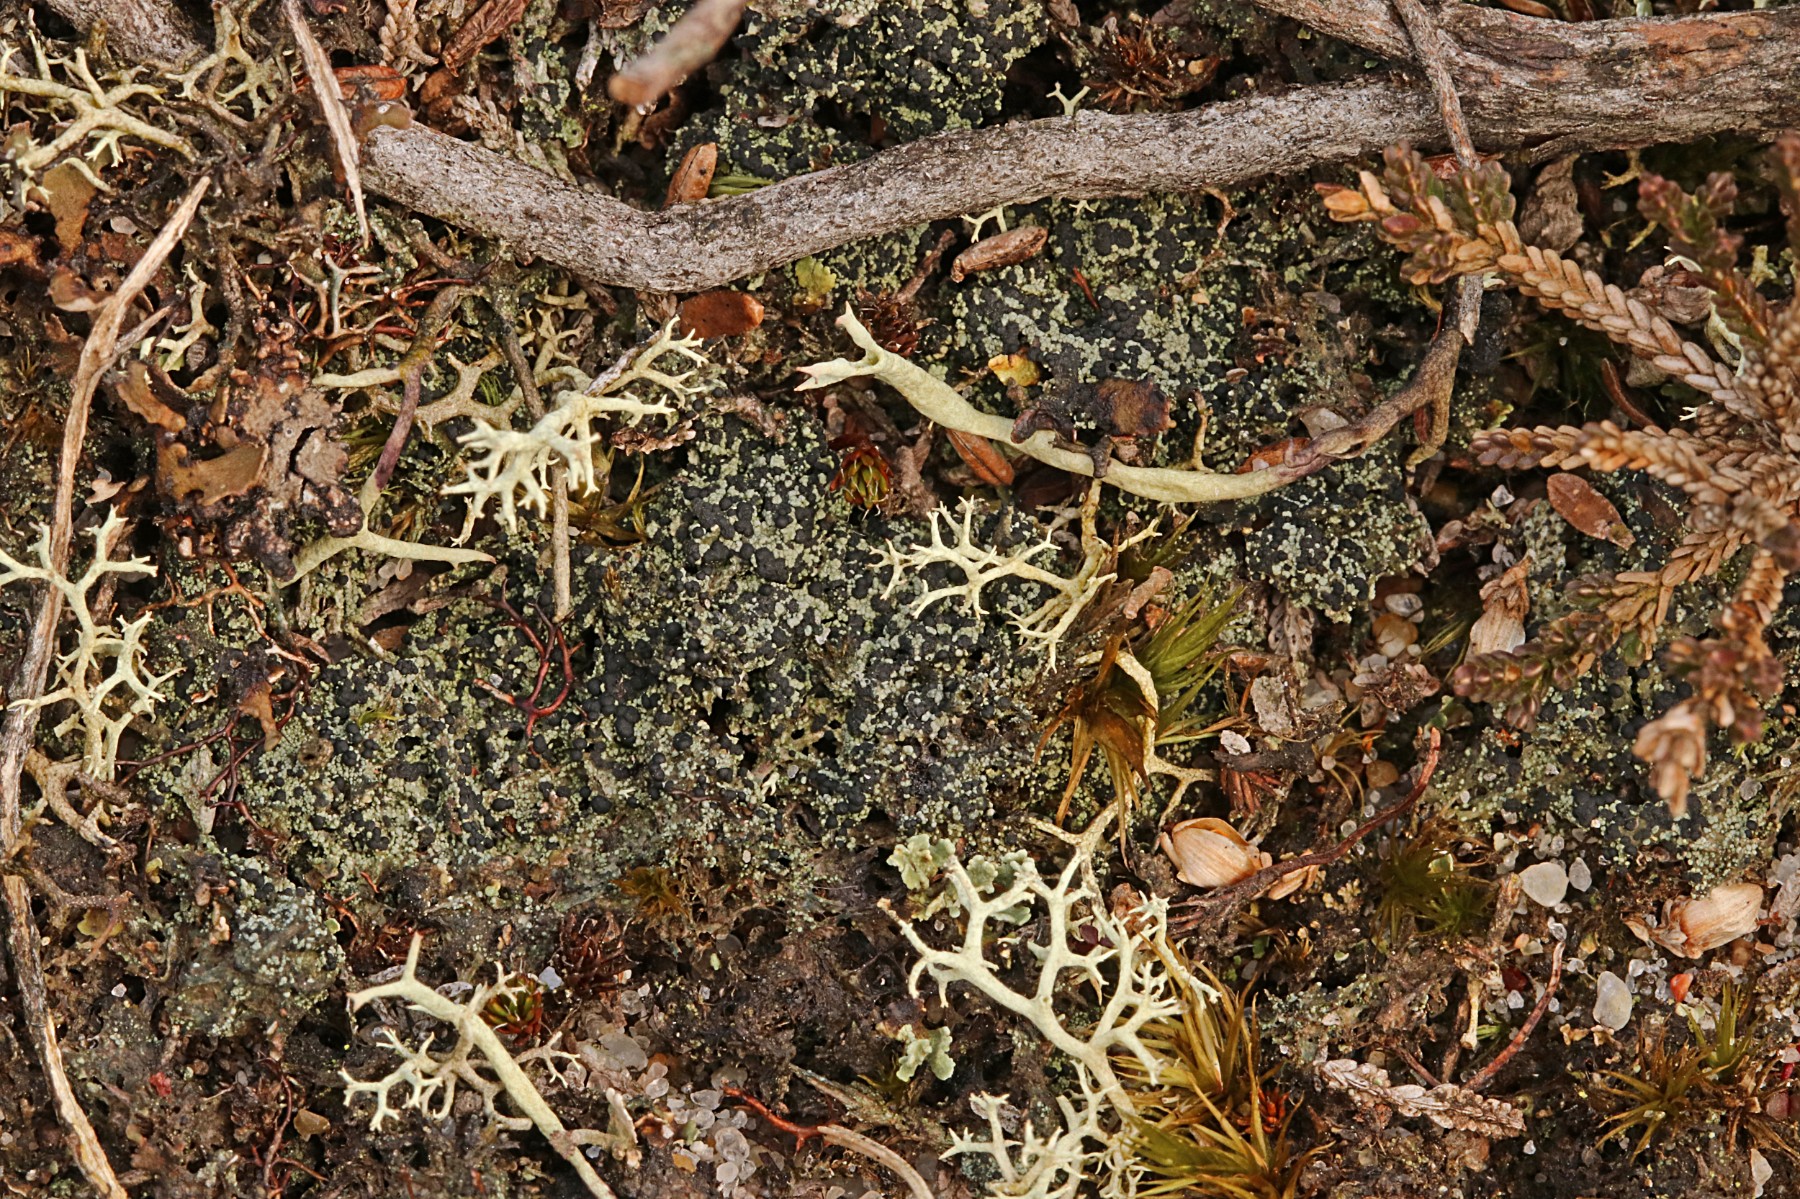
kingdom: Fungi
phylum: Ascomycota
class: Lecanoromycetes
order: Lecanorales
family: Byssolomataceae
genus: Micarea
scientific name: Micarea lignaria
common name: tørve-knaplav
